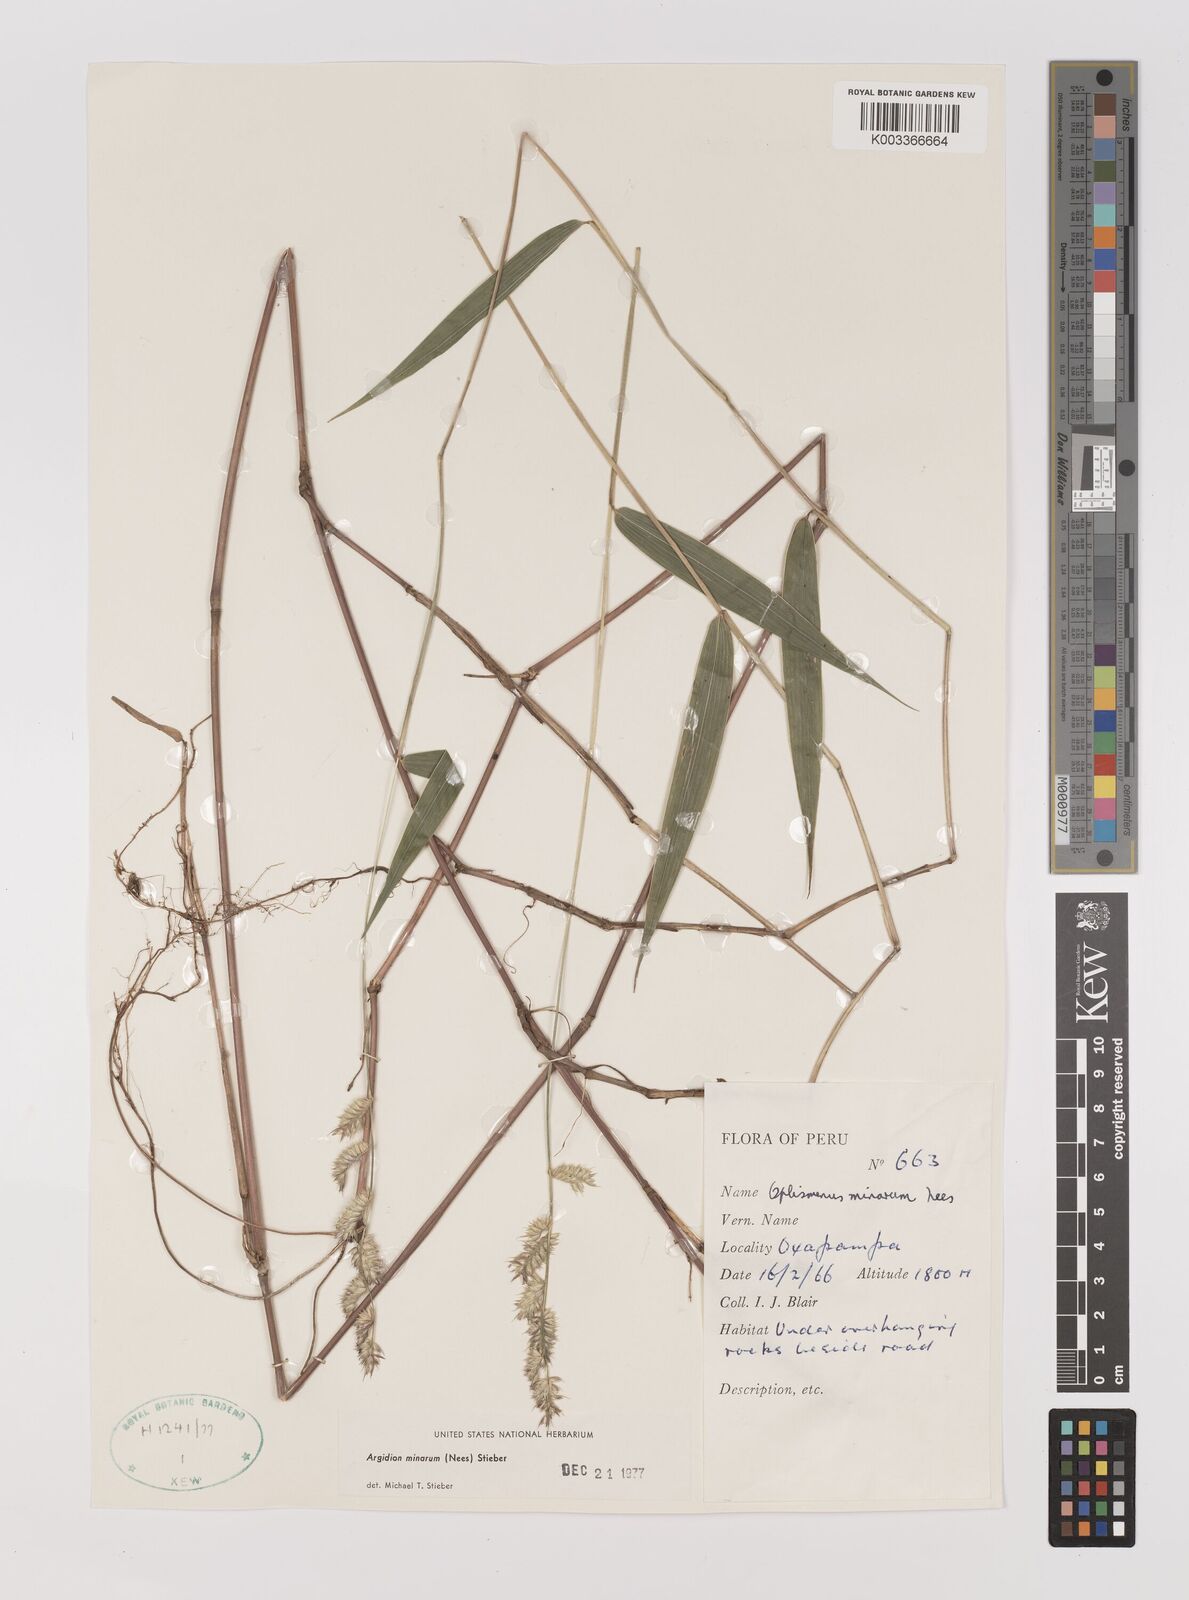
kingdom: Plantae
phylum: Tracheophyta
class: Liliopsida
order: Poales
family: Poaceae
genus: Oedochloa
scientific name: Oedochloa minarum
